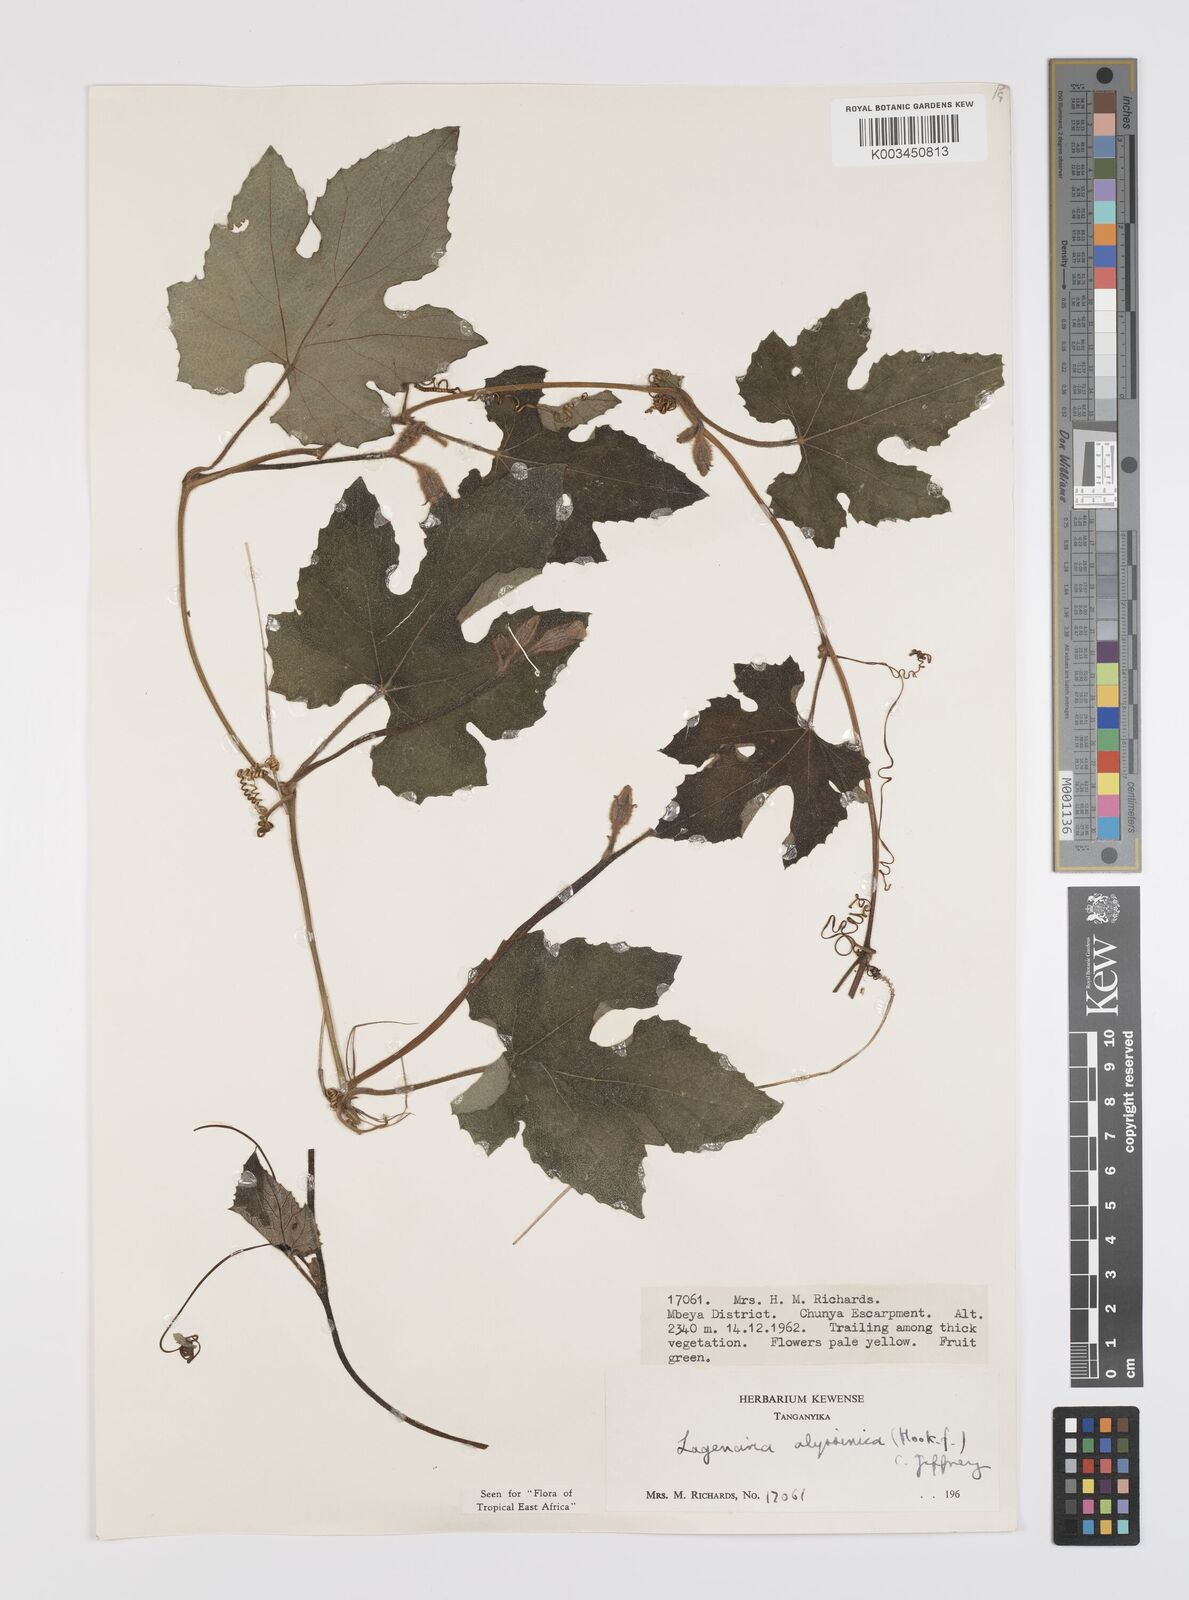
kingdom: Plantae
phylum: Tracheophyta
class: Magnoliopsida
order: Cucurbitales
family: Cucurbitaceae
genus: Lagenaria
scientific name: Lagenaria abyssinica
